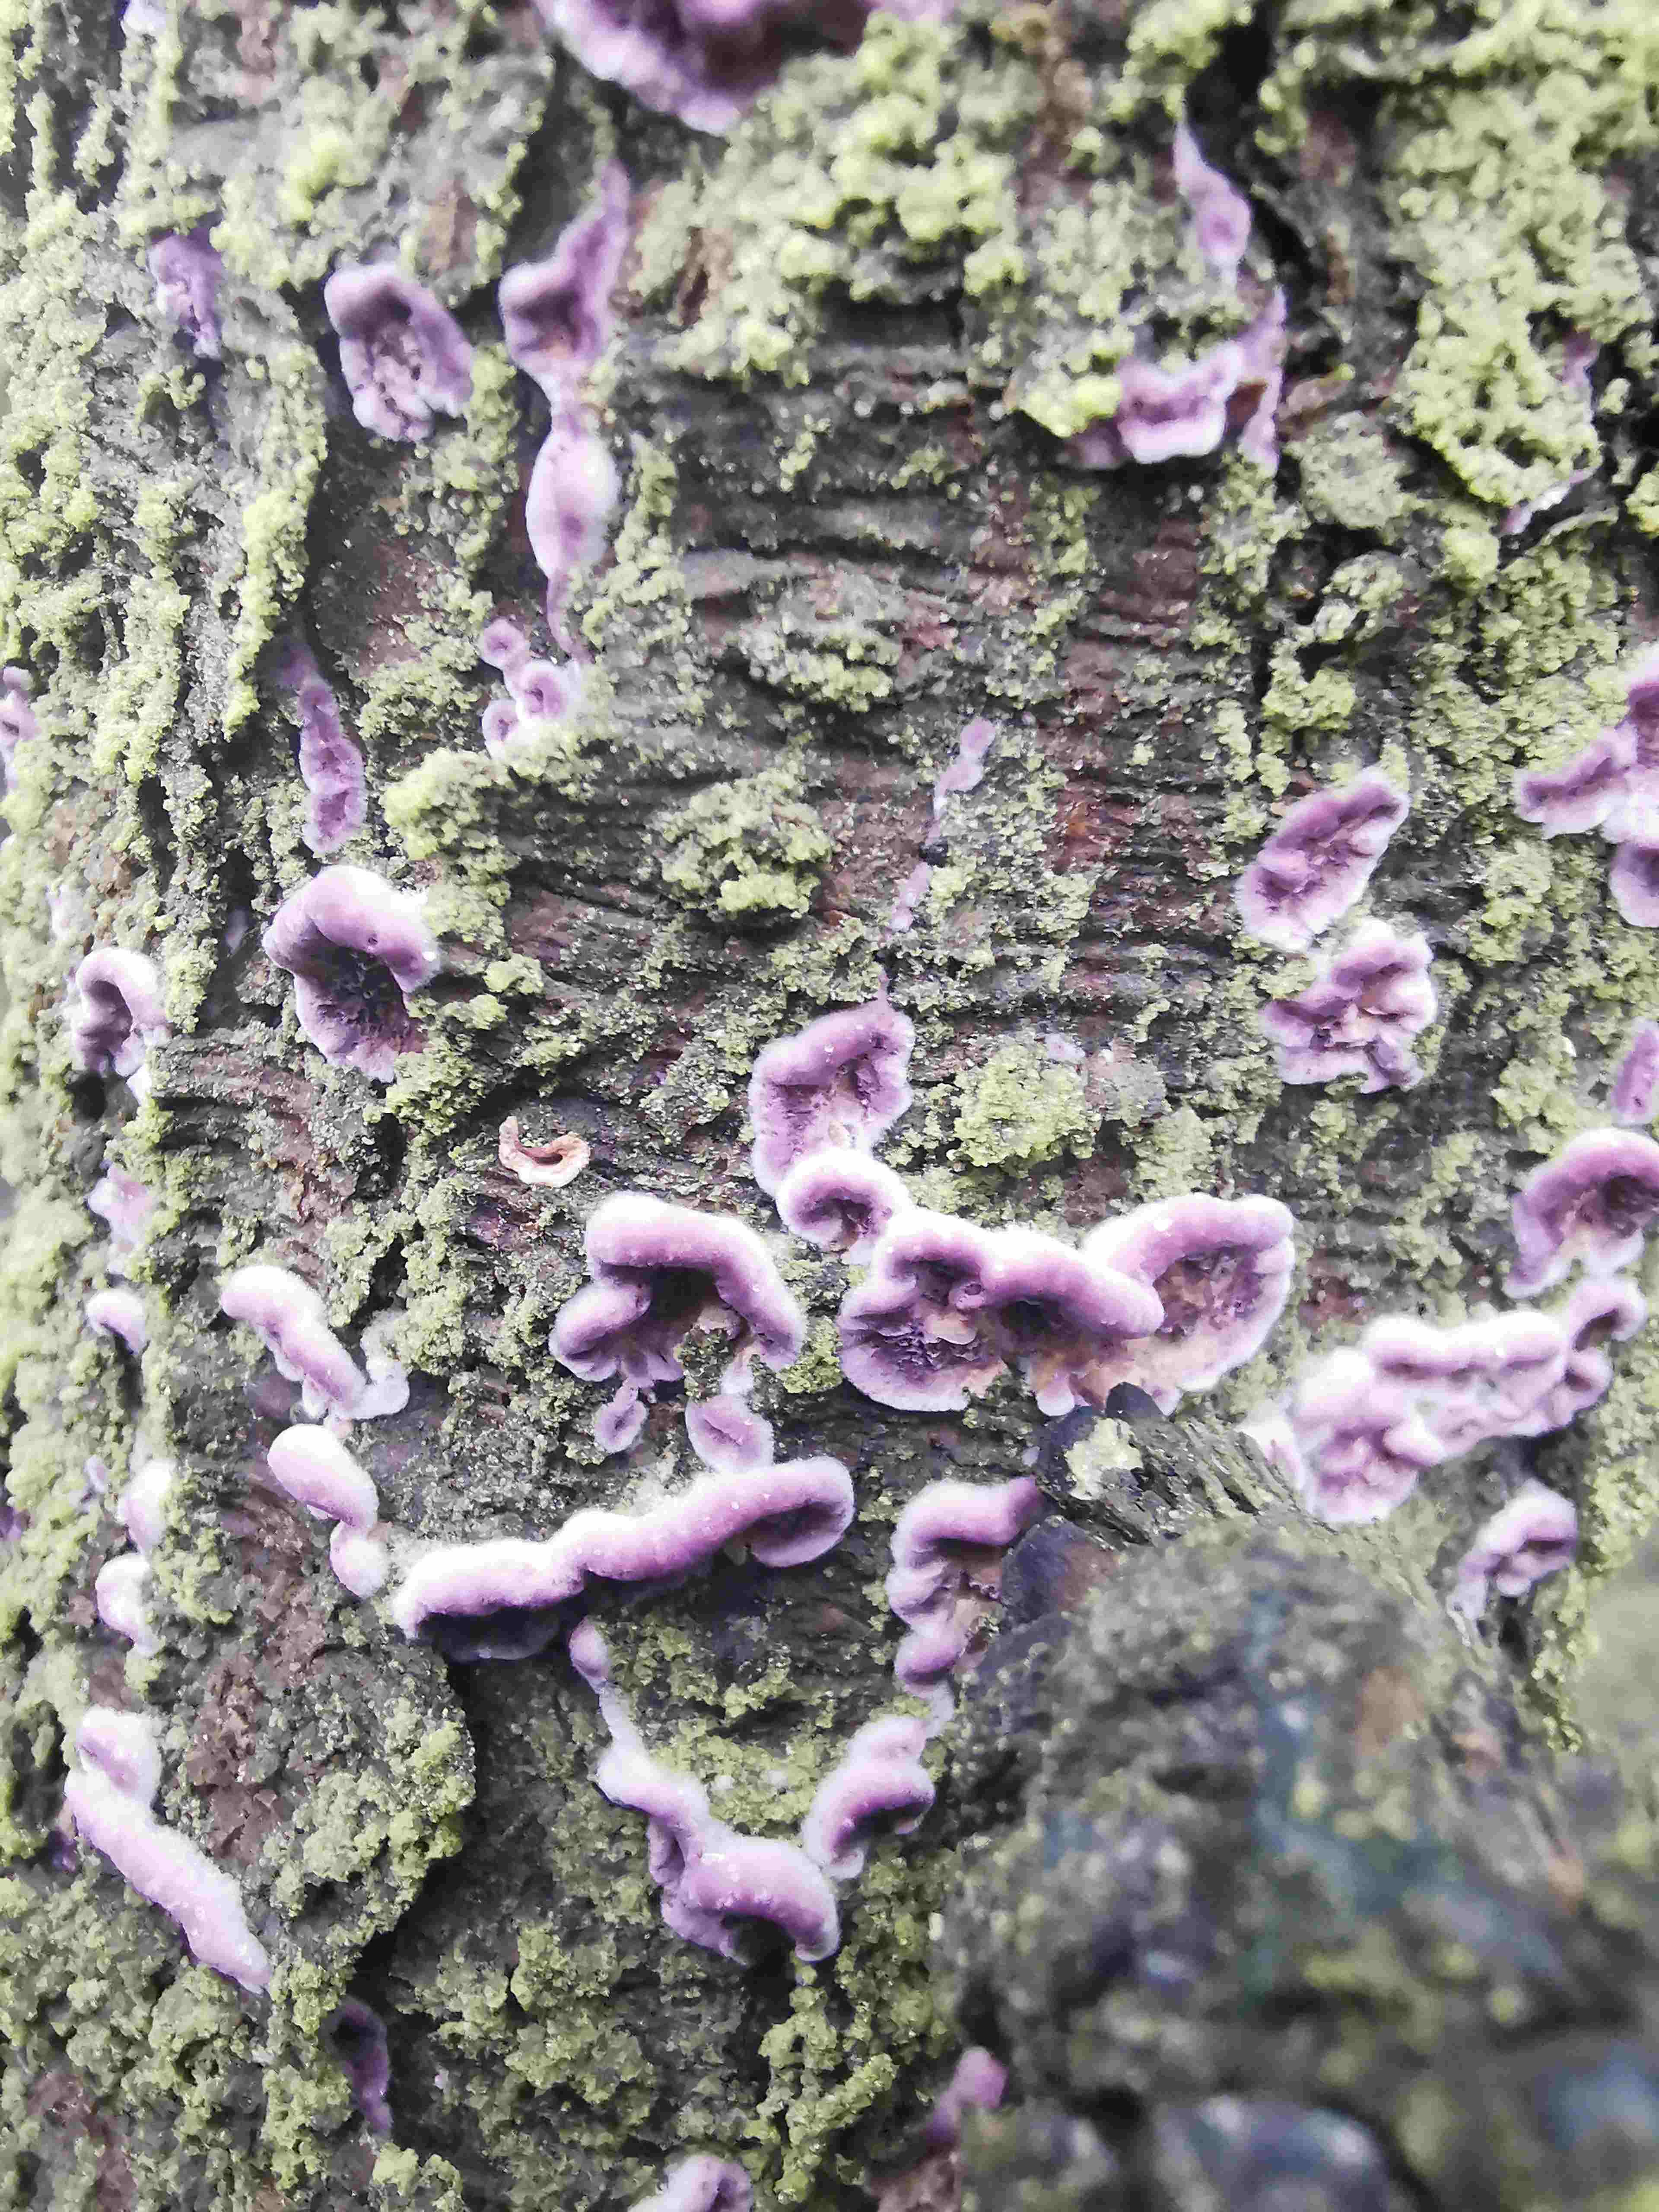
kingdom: Fungi
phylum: Basidiomycota
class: Agaricomycetes
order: Hymenochaetales
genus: Trichaptum
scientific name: Trichaptum abietinum
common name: almindelig violporesvamp
